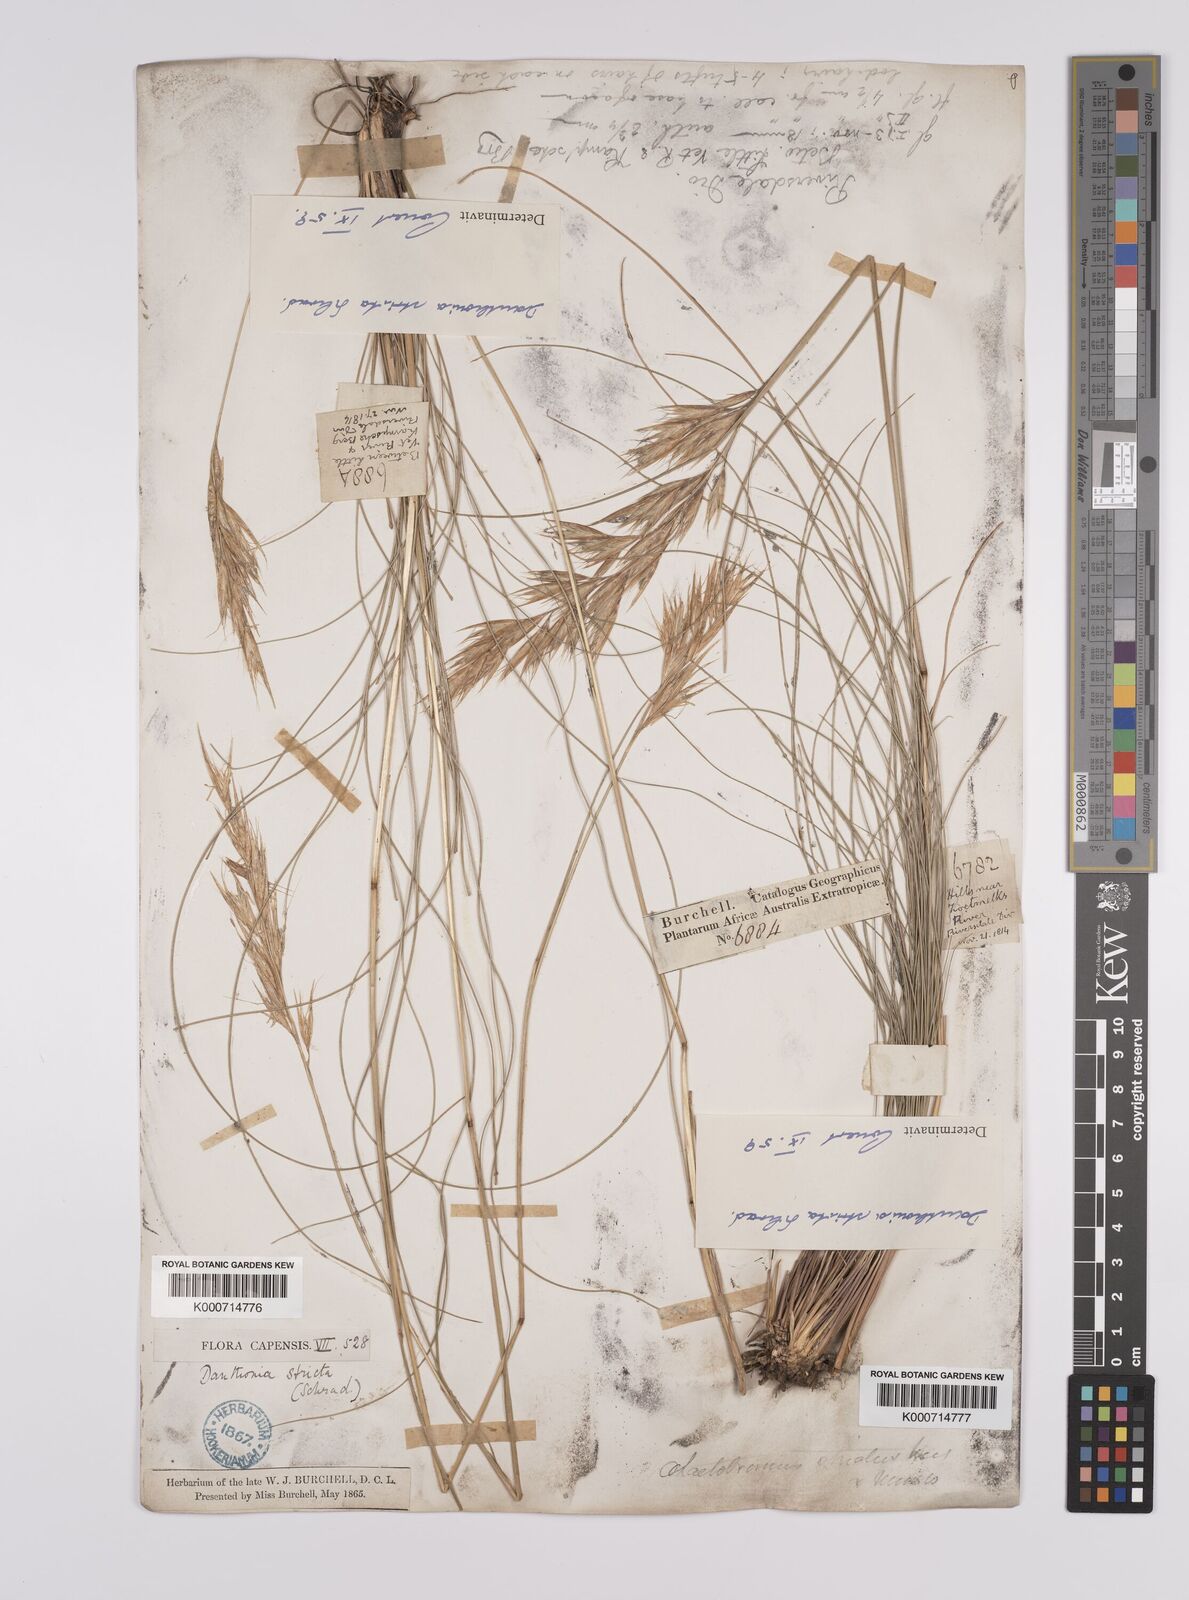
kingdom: Plantae
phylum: Tracheophyta
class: Liliopsida
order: Poales
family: Poaceae
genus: Rytidosperma
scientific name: Rytidosperma
